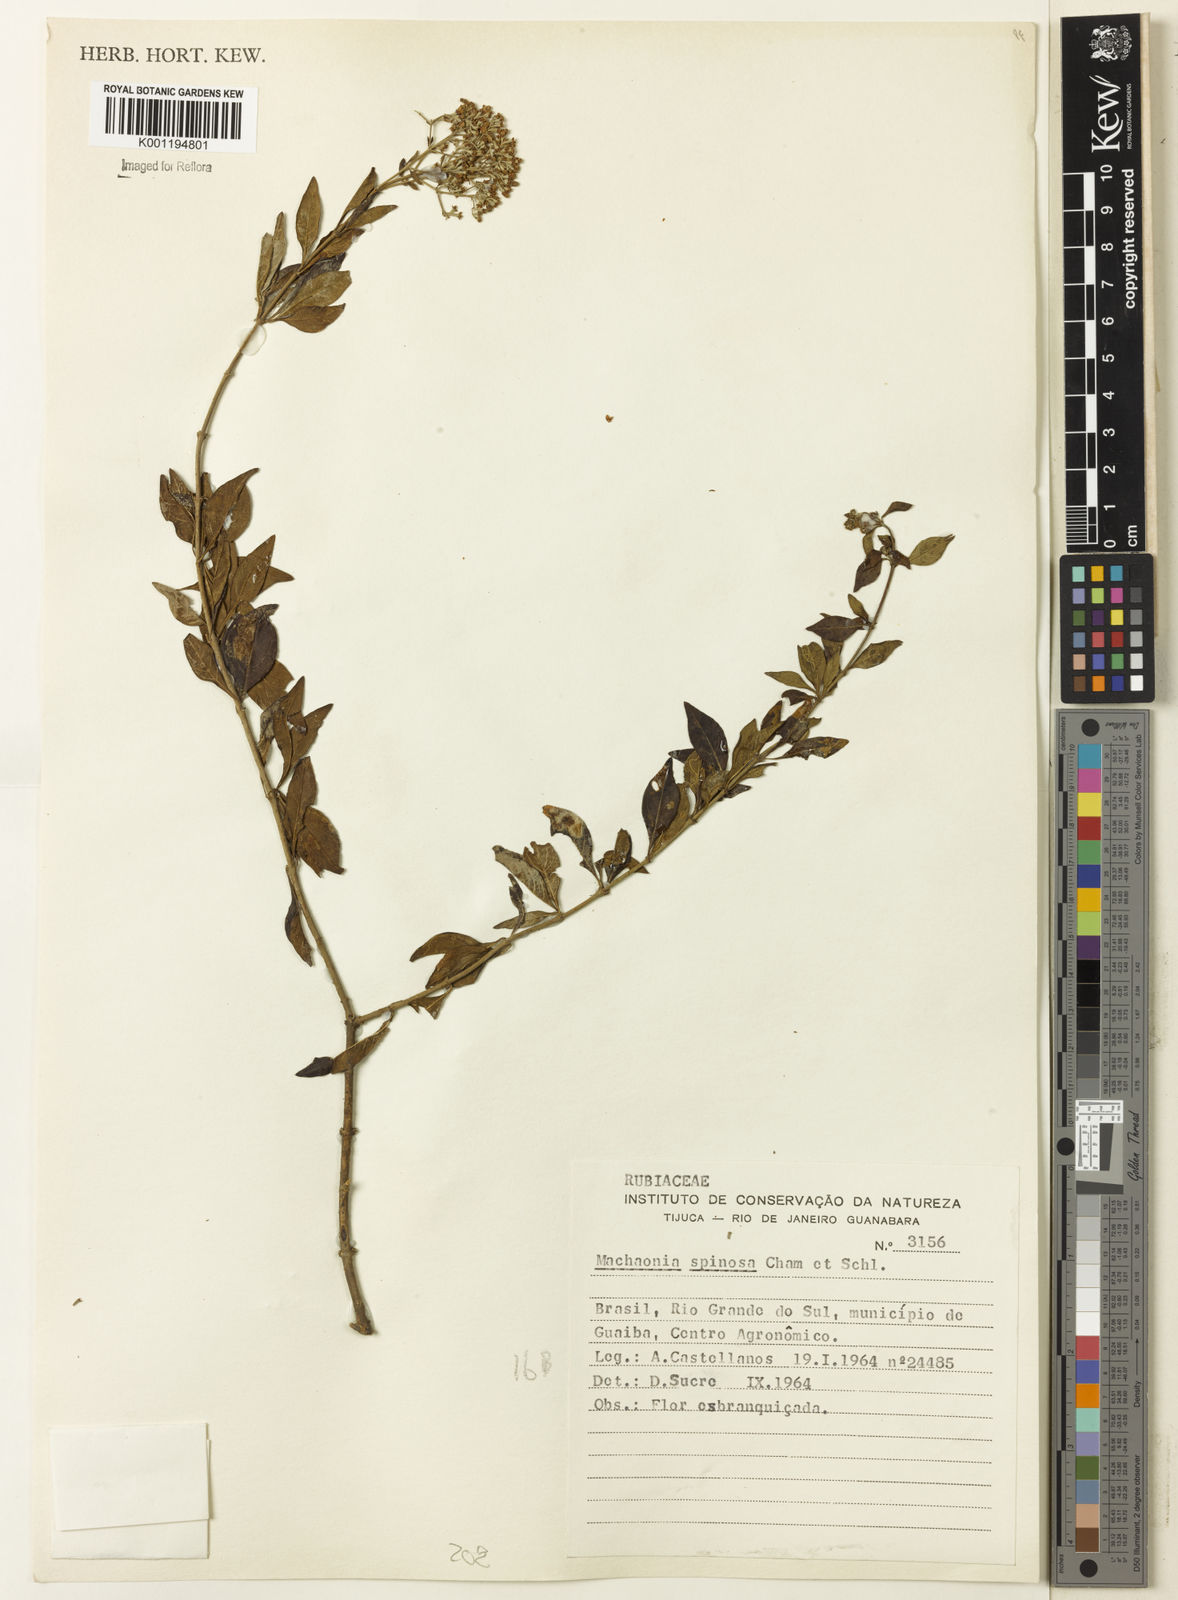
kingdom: Plantae
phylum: Tracheophyta
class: Magnoliopsida
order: Gentianales
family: Rubiaceae
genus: Machaonia
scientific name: Machaonia brasiliensis
